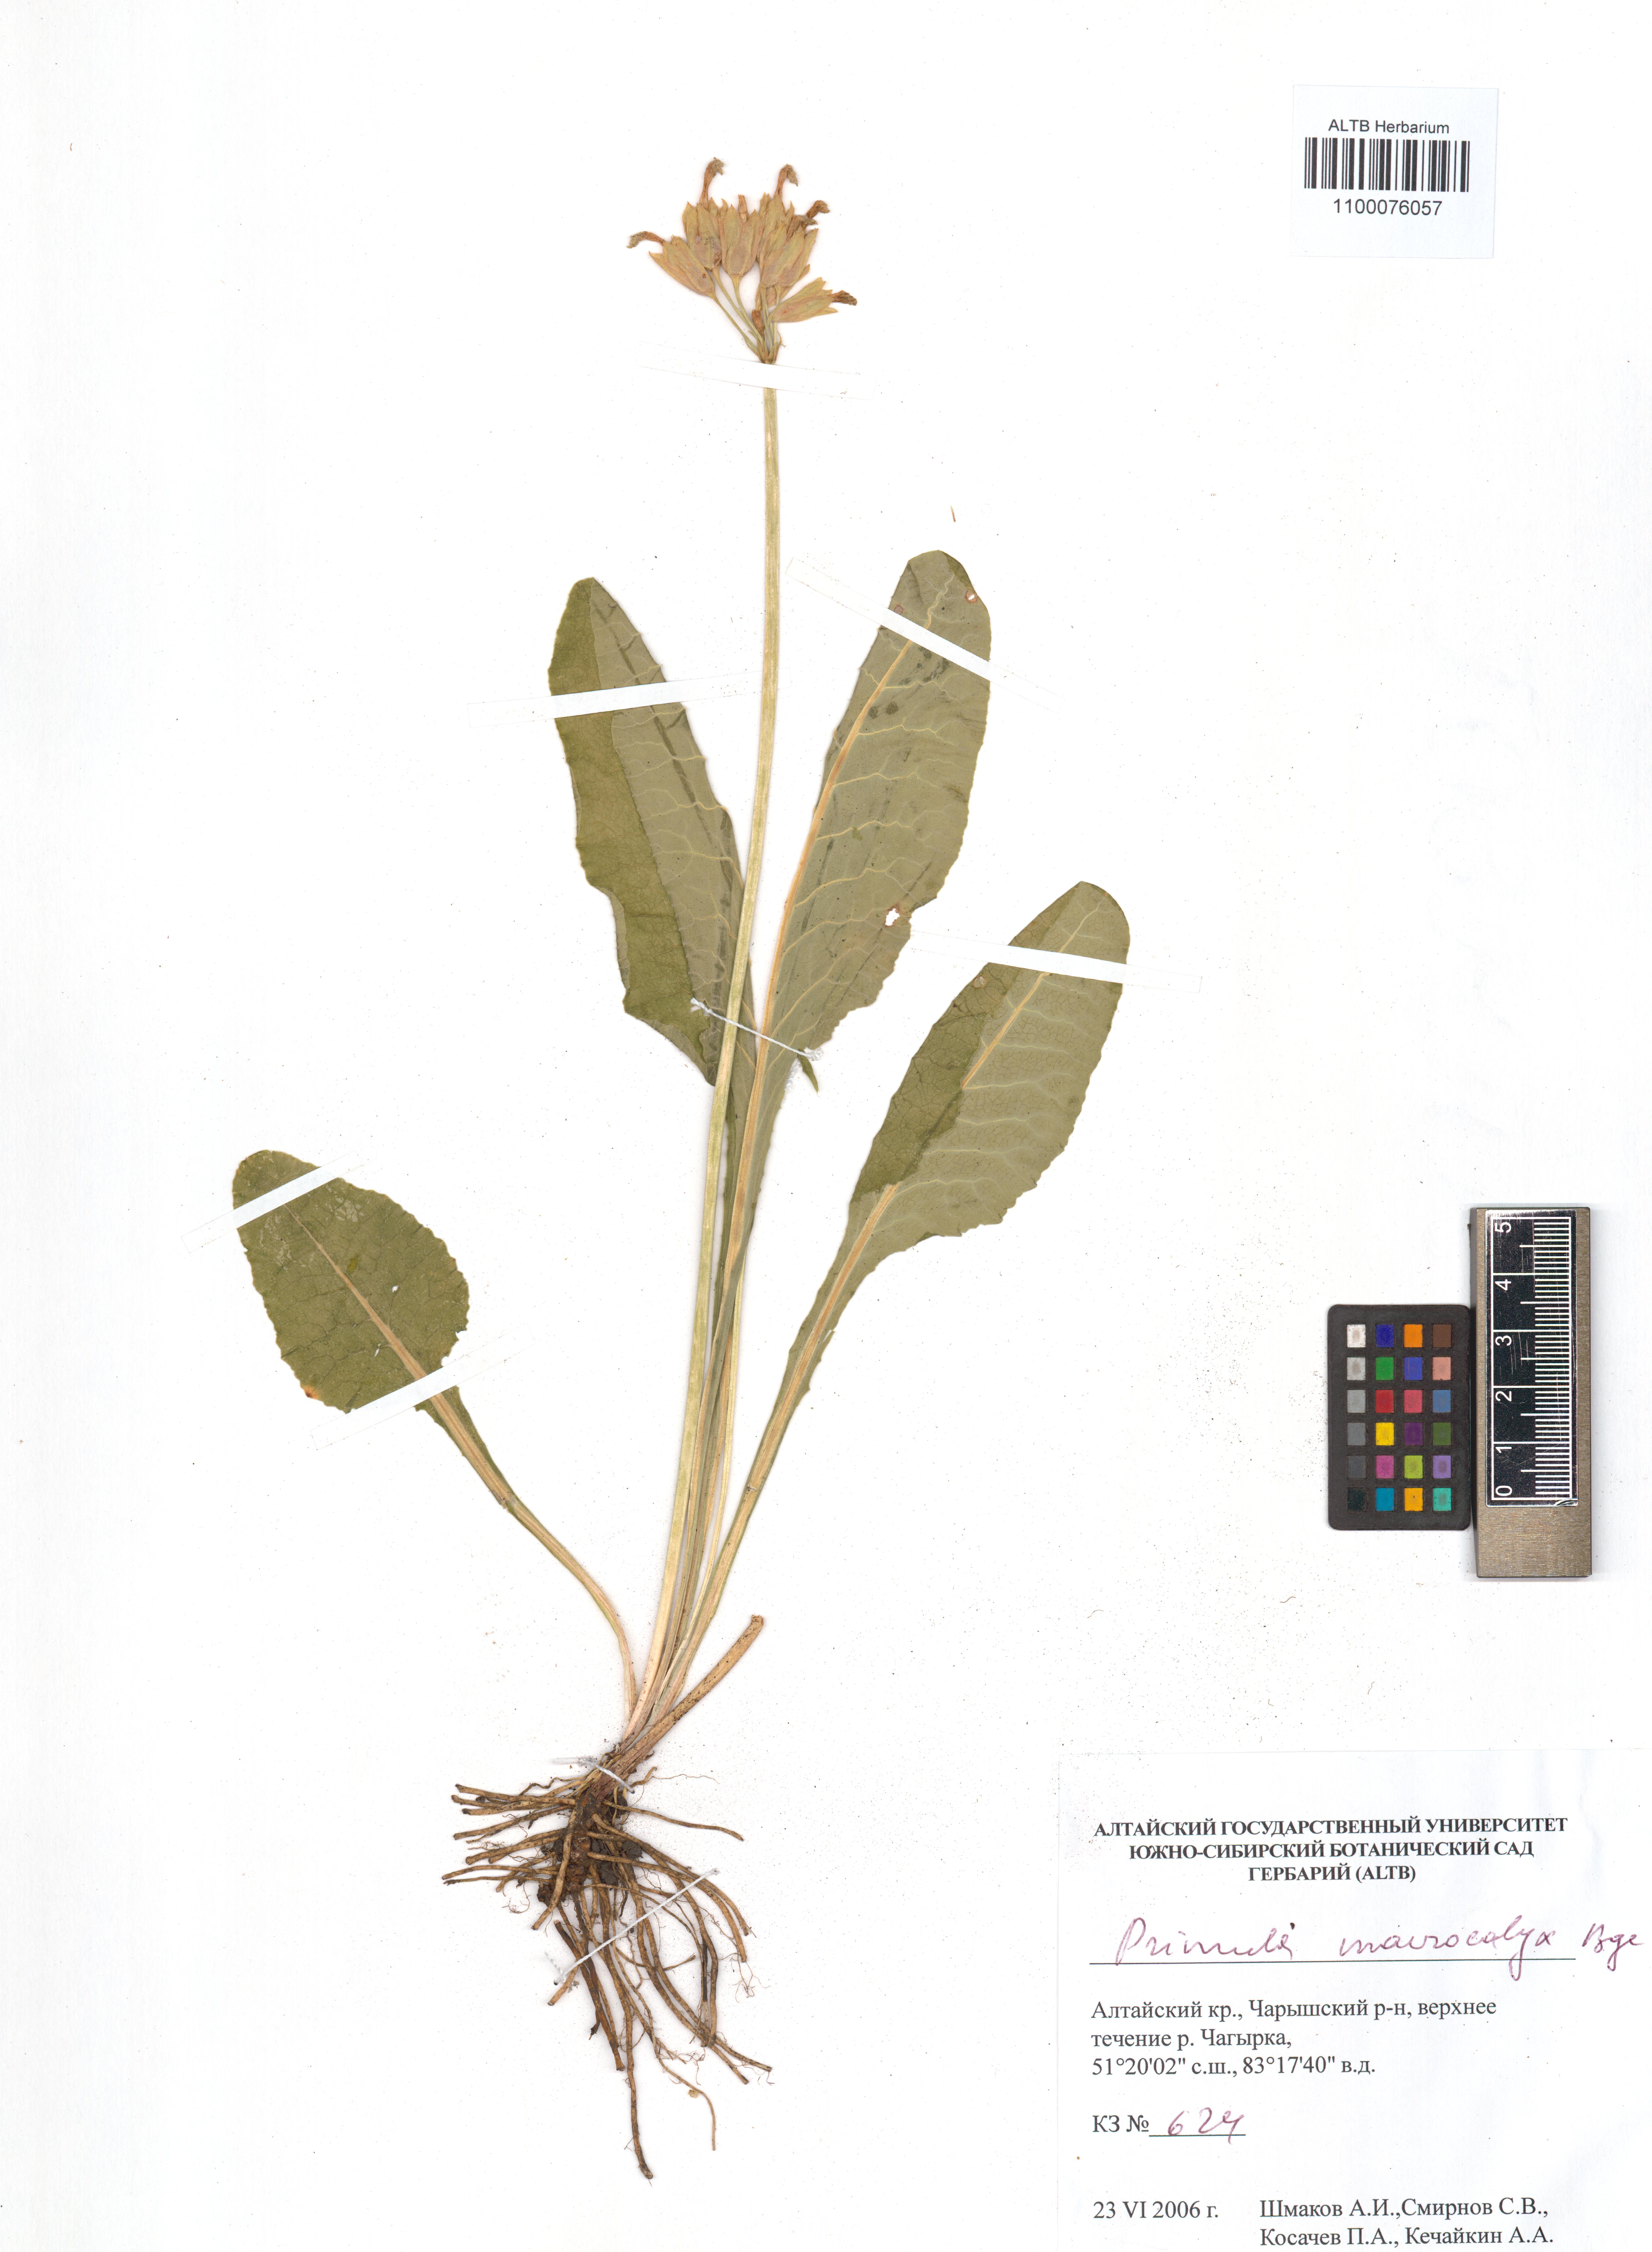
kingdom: Plantae
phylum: Tracheophyta
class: Magnoliopsida
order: Ericales
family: Primulaceae
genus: Primula
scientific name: Primula veris
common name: Cowslip
